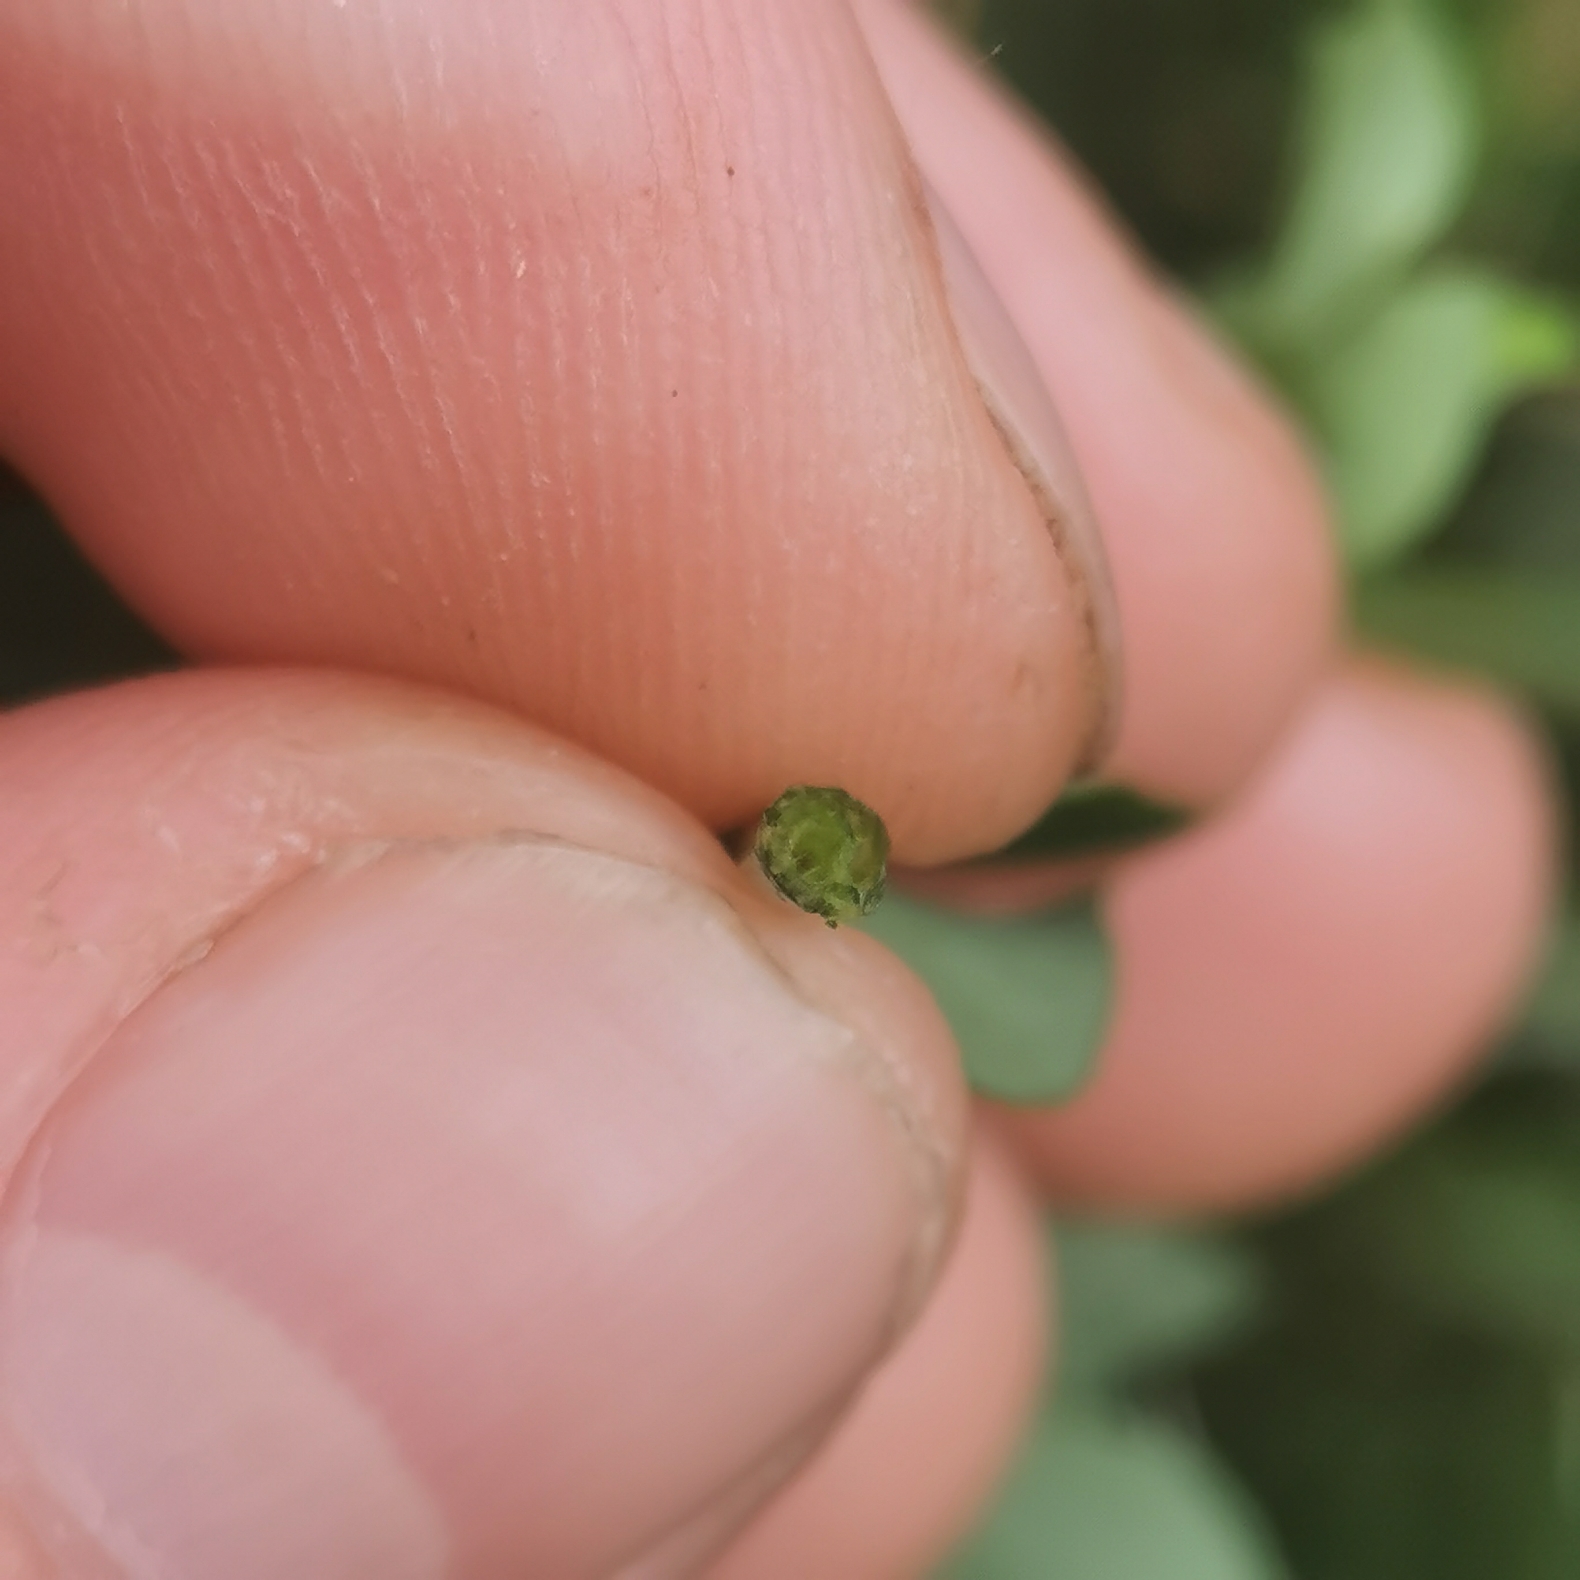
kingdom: Plantae
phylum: Tracheophyta
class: Magnoliopsida
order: Fabales
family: Fabaceae
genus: Lotus
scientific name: Lotus pedunculatus
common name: Sump-kællingetand
